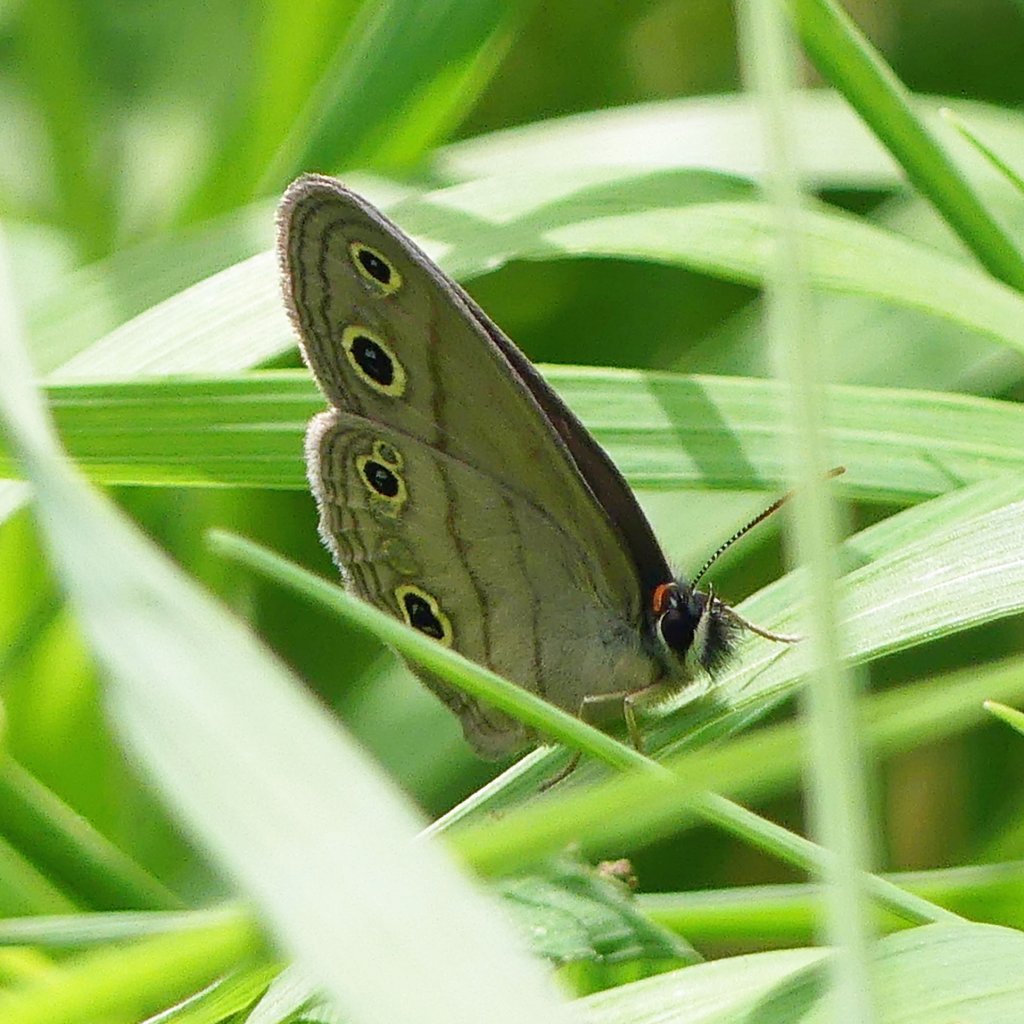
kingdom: Animalia
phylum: Arthropoda
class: Insecta
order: Lepidoptera
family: Nymphalidae
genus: Euptychia
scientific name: Euptychia cymela
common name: Little Wood Satyr
